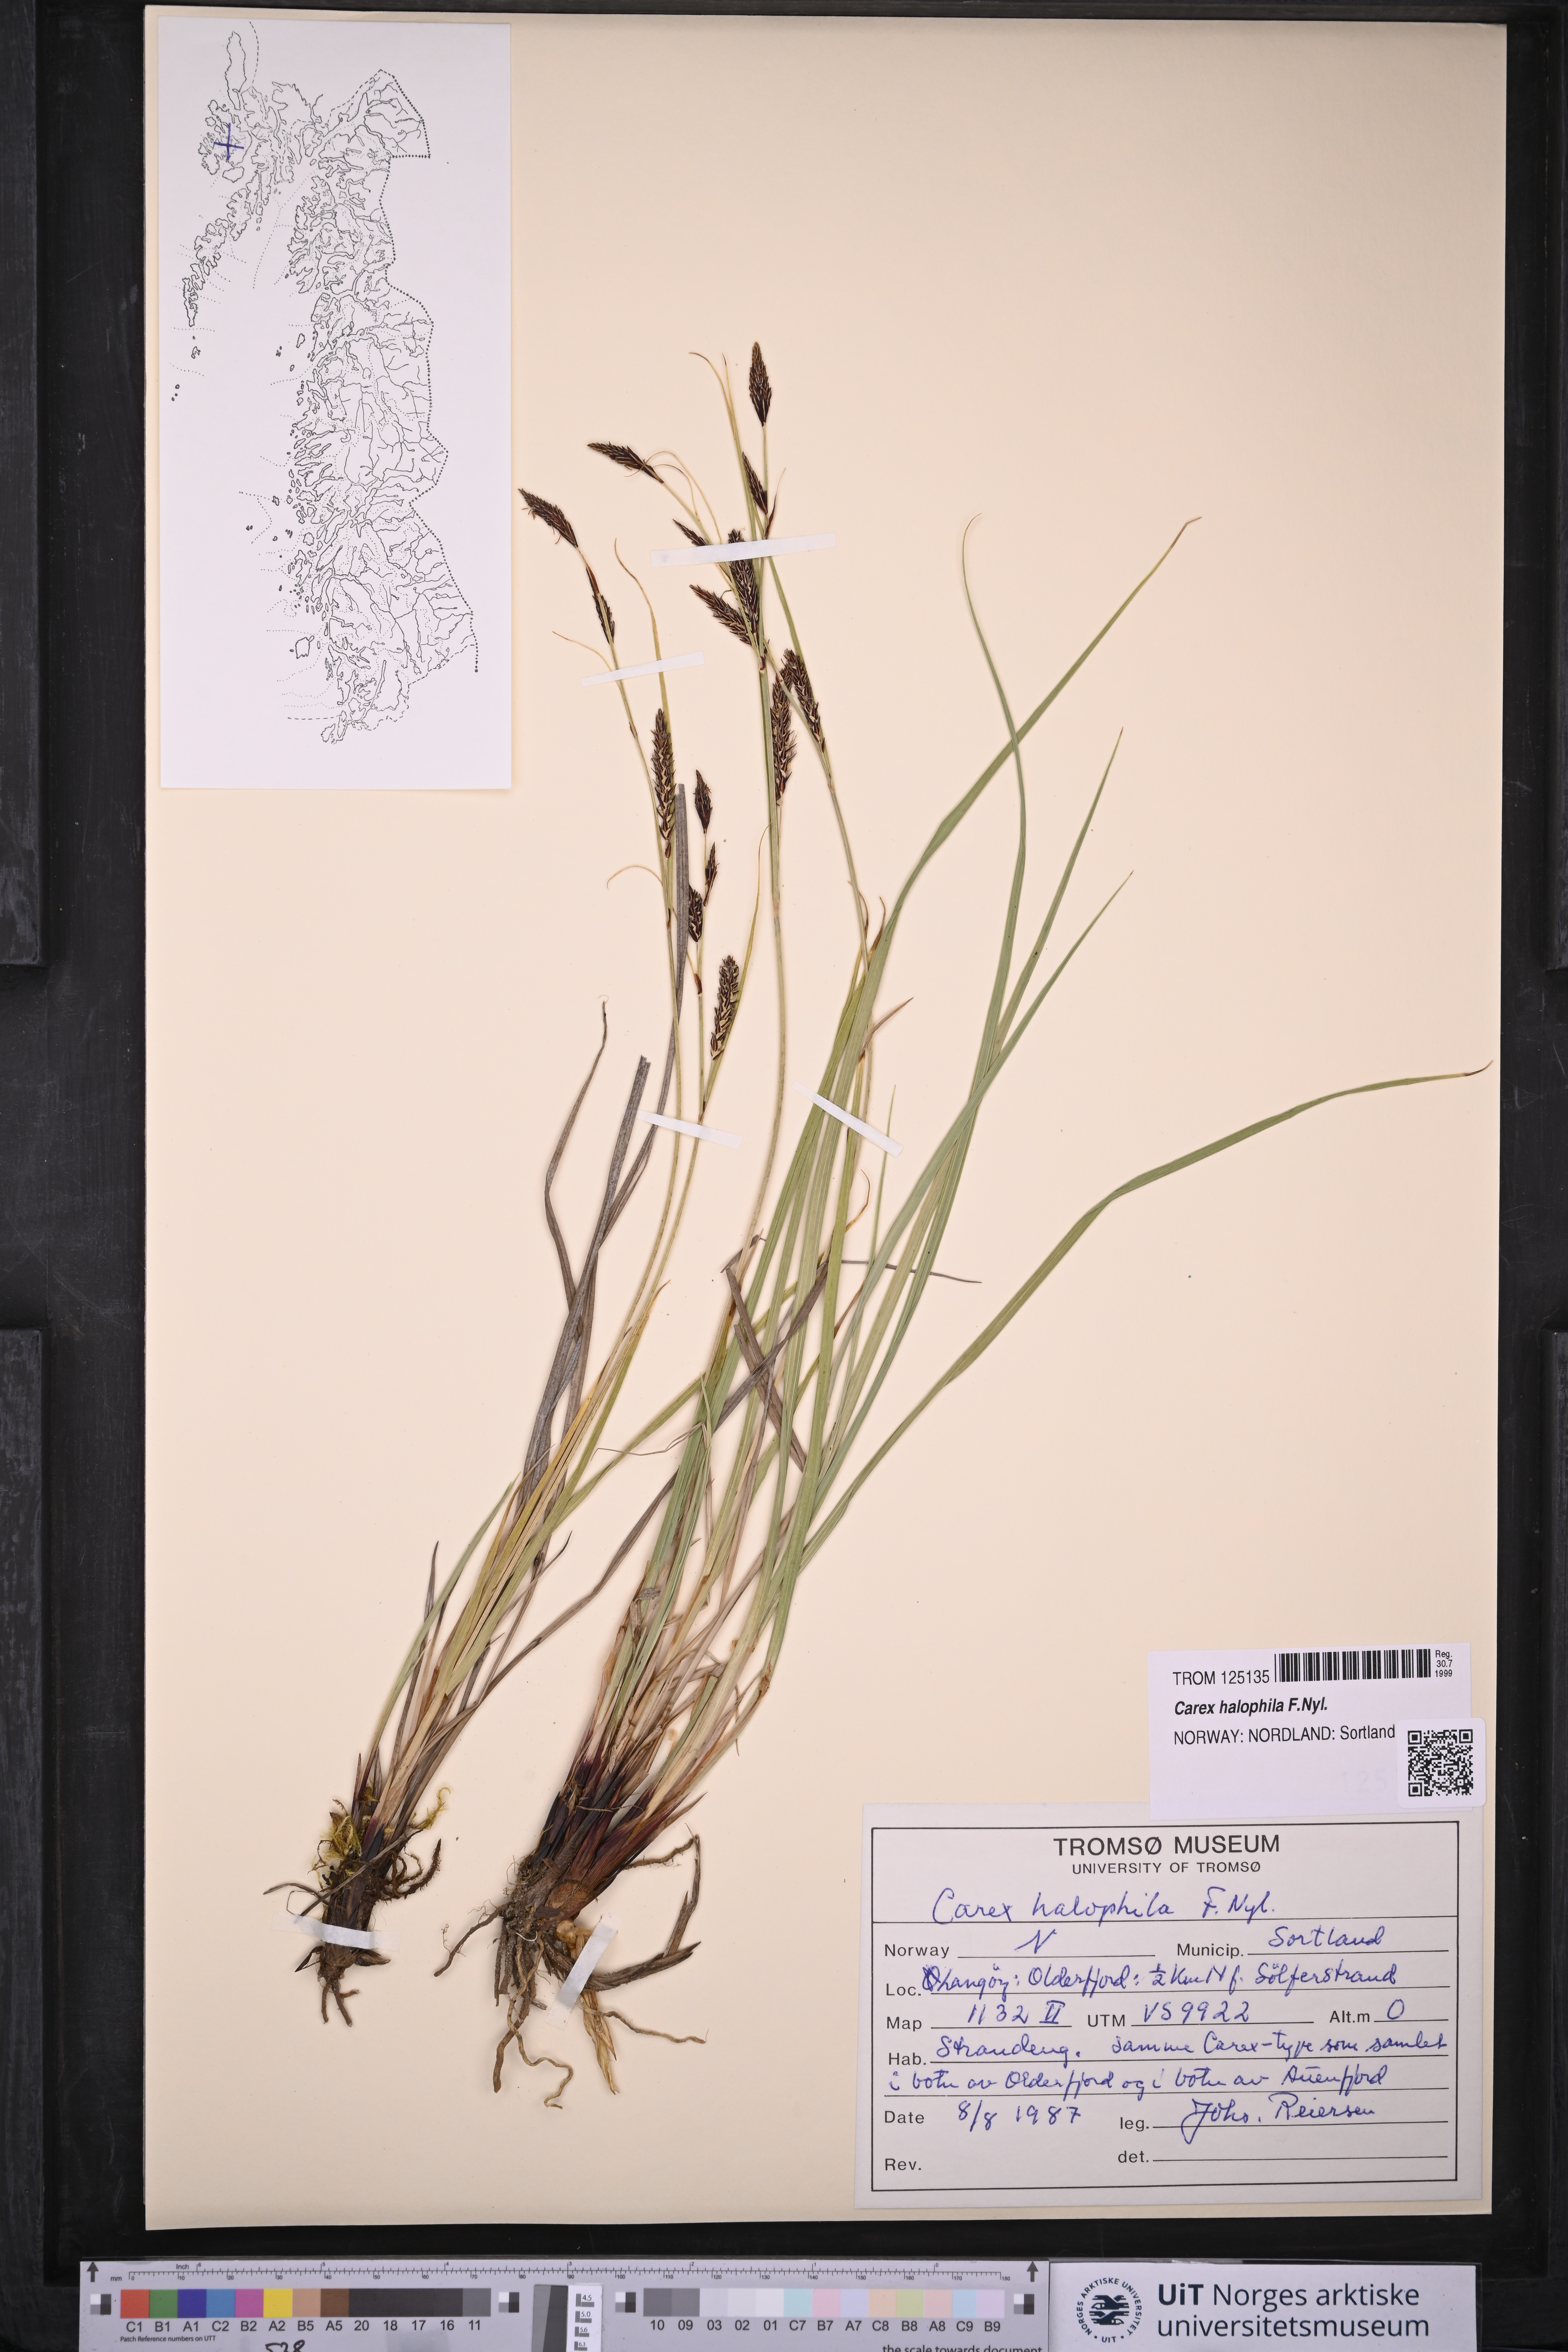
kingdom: Plantae
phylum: Tracheophyta
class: Liliopsida
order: Poales
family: Cyperaceae
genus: Carex
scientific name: Carex halophila
